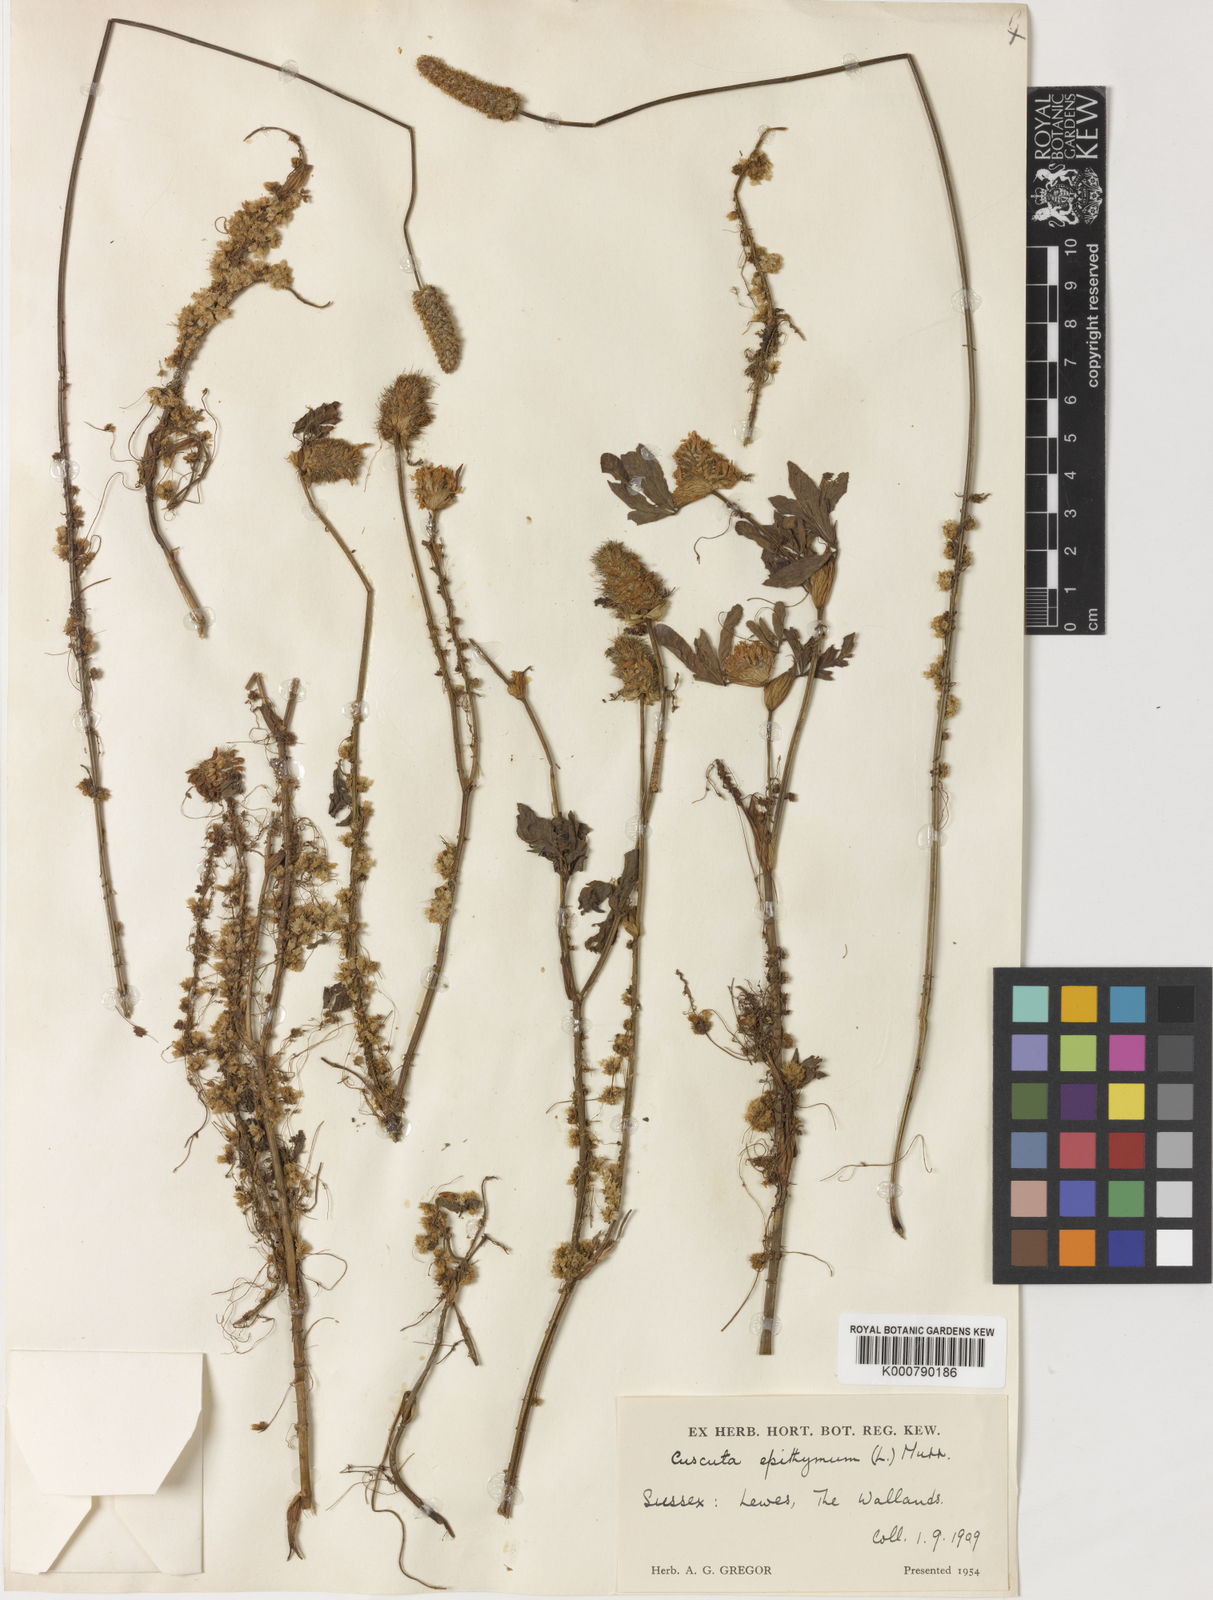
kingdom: Plantae
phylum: Tracheophyta
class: Magnoliopsida
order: Solanales
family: Convolvulaceae
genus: Cuscuta
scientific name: Cuscuta epithymum
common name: Clover dodder
